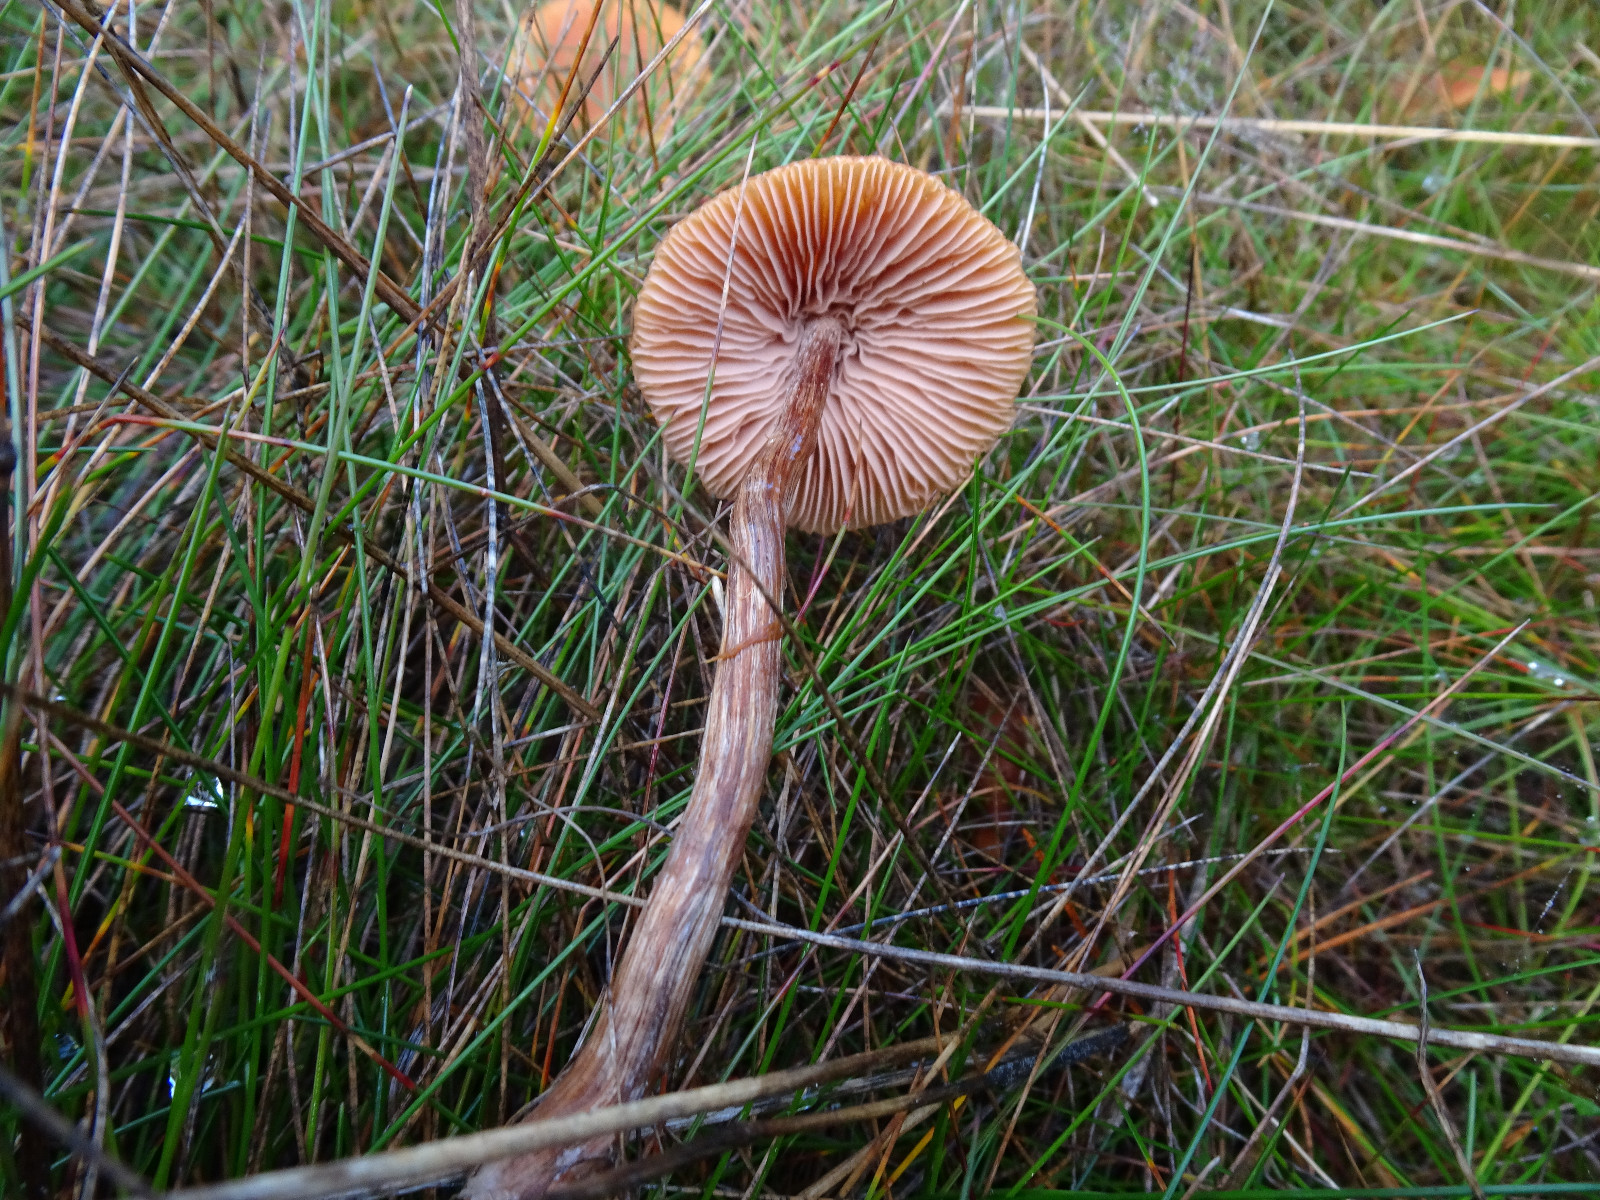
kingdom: Fungi
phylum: Basidiomycota
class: Agaricomycetes
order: Agaricales
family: Hydnangiaceae
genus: Laccaria
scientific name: Laccaria proxima
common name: stor ametysthat
